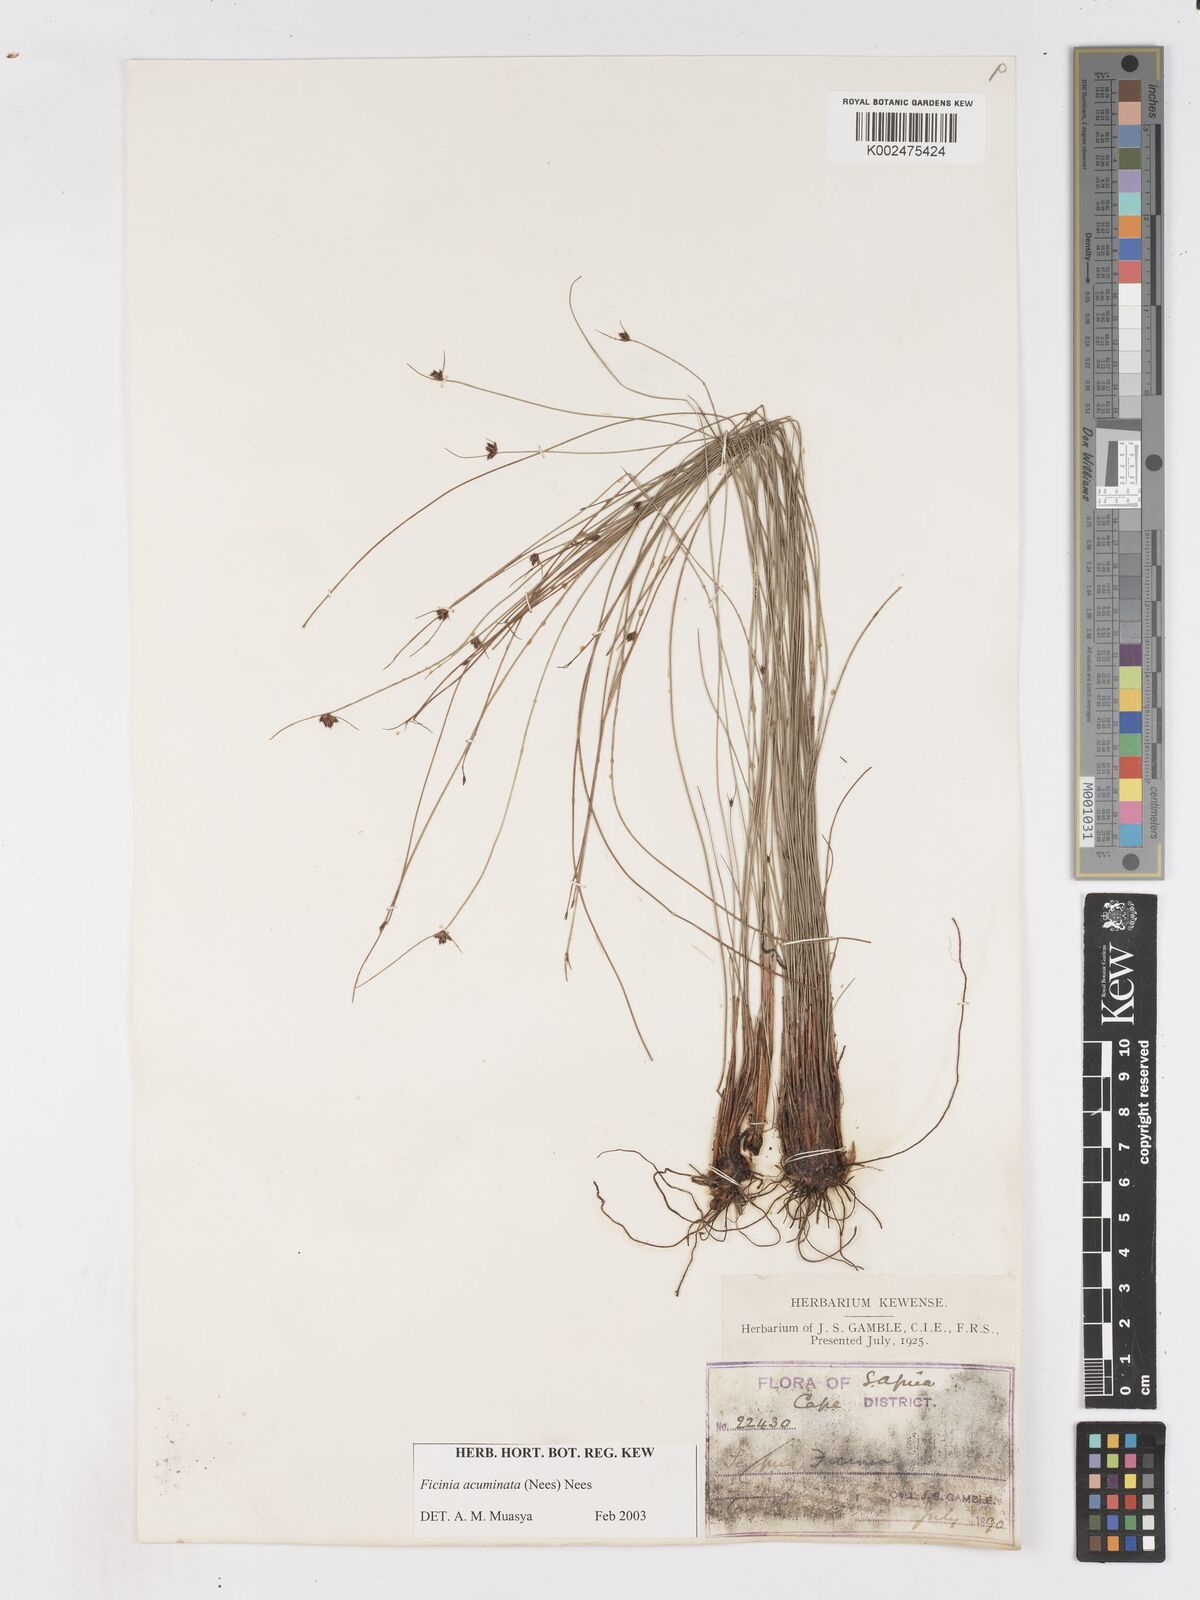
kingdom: Plantae
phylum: Tracheophyta
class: Liliopsida
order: Poales
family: Cyperaceae
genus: Ficinia
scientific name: Ficinia acuminata
